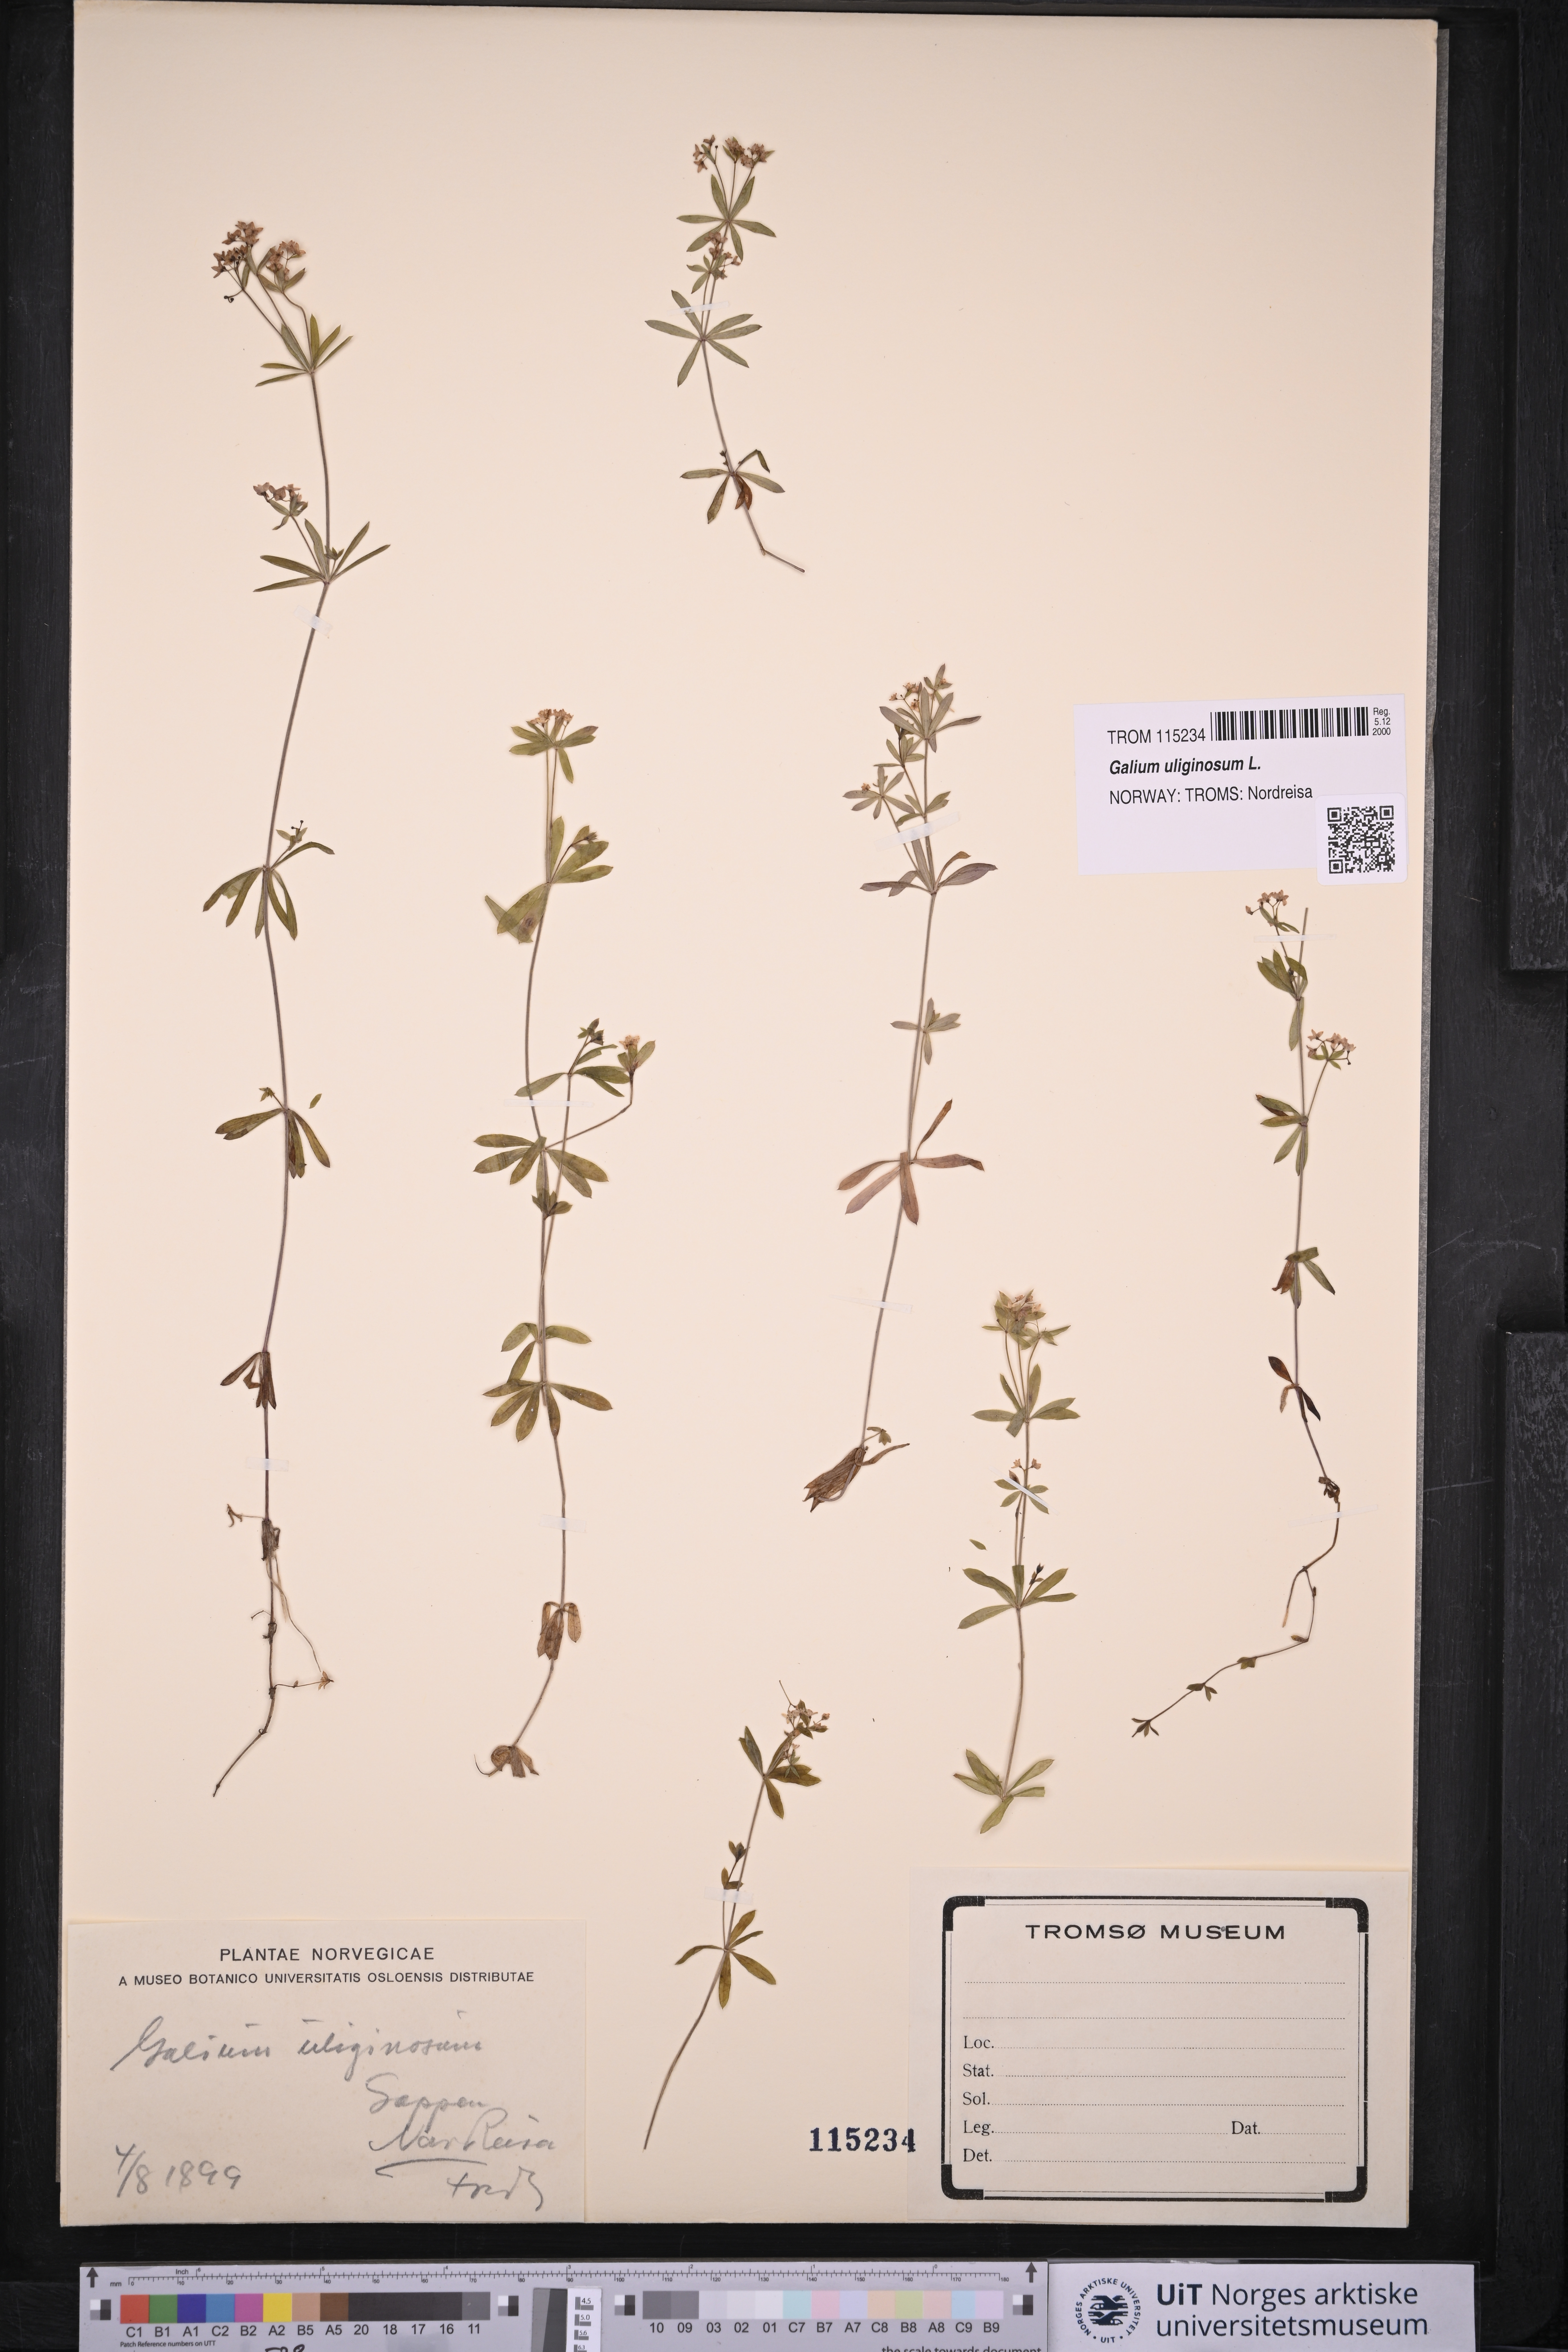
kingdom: Plantae
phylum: Tracheophyta
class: Magnoliopsida
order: Gentianales
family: Rubiaceae
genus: Galium
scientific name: Galium uliginosum
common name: Fen bedstraw
